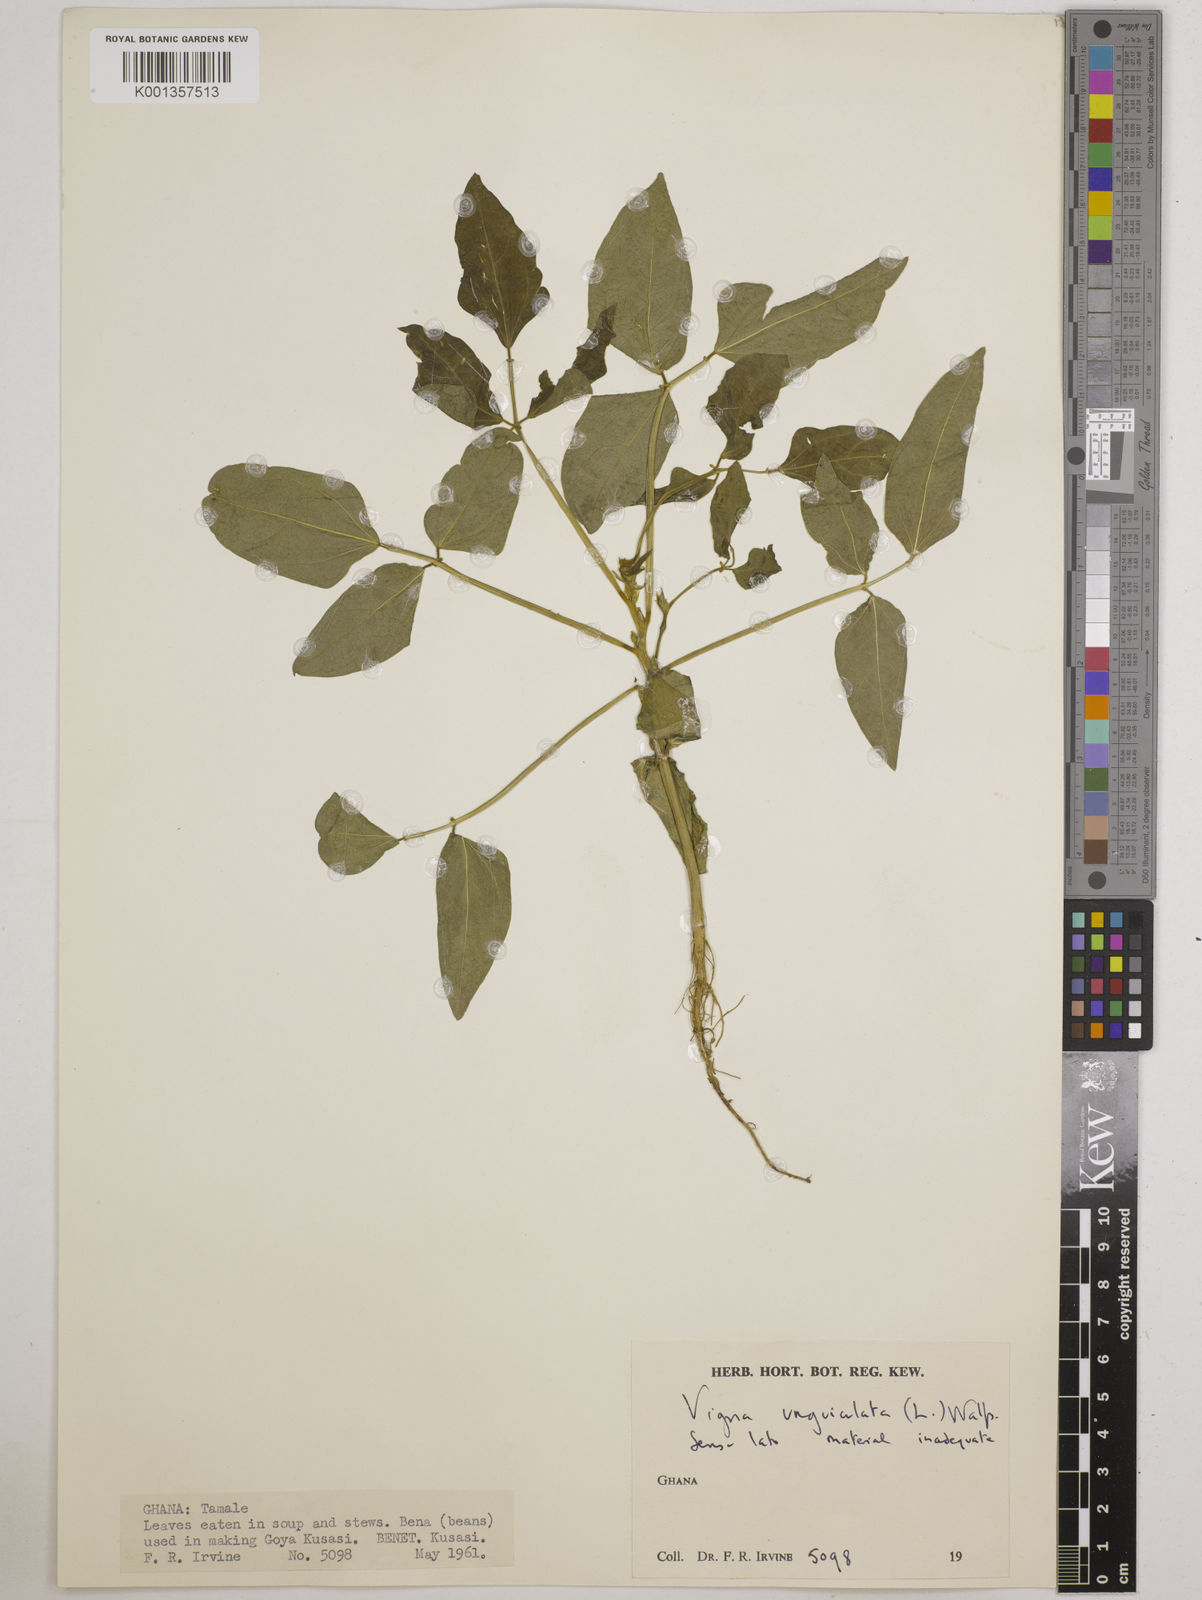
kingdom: Plantae
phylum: Tracheophyta
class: Magnoliopsida
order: Fabales
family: Fabaceae
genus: Vigna
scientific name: Vigna
